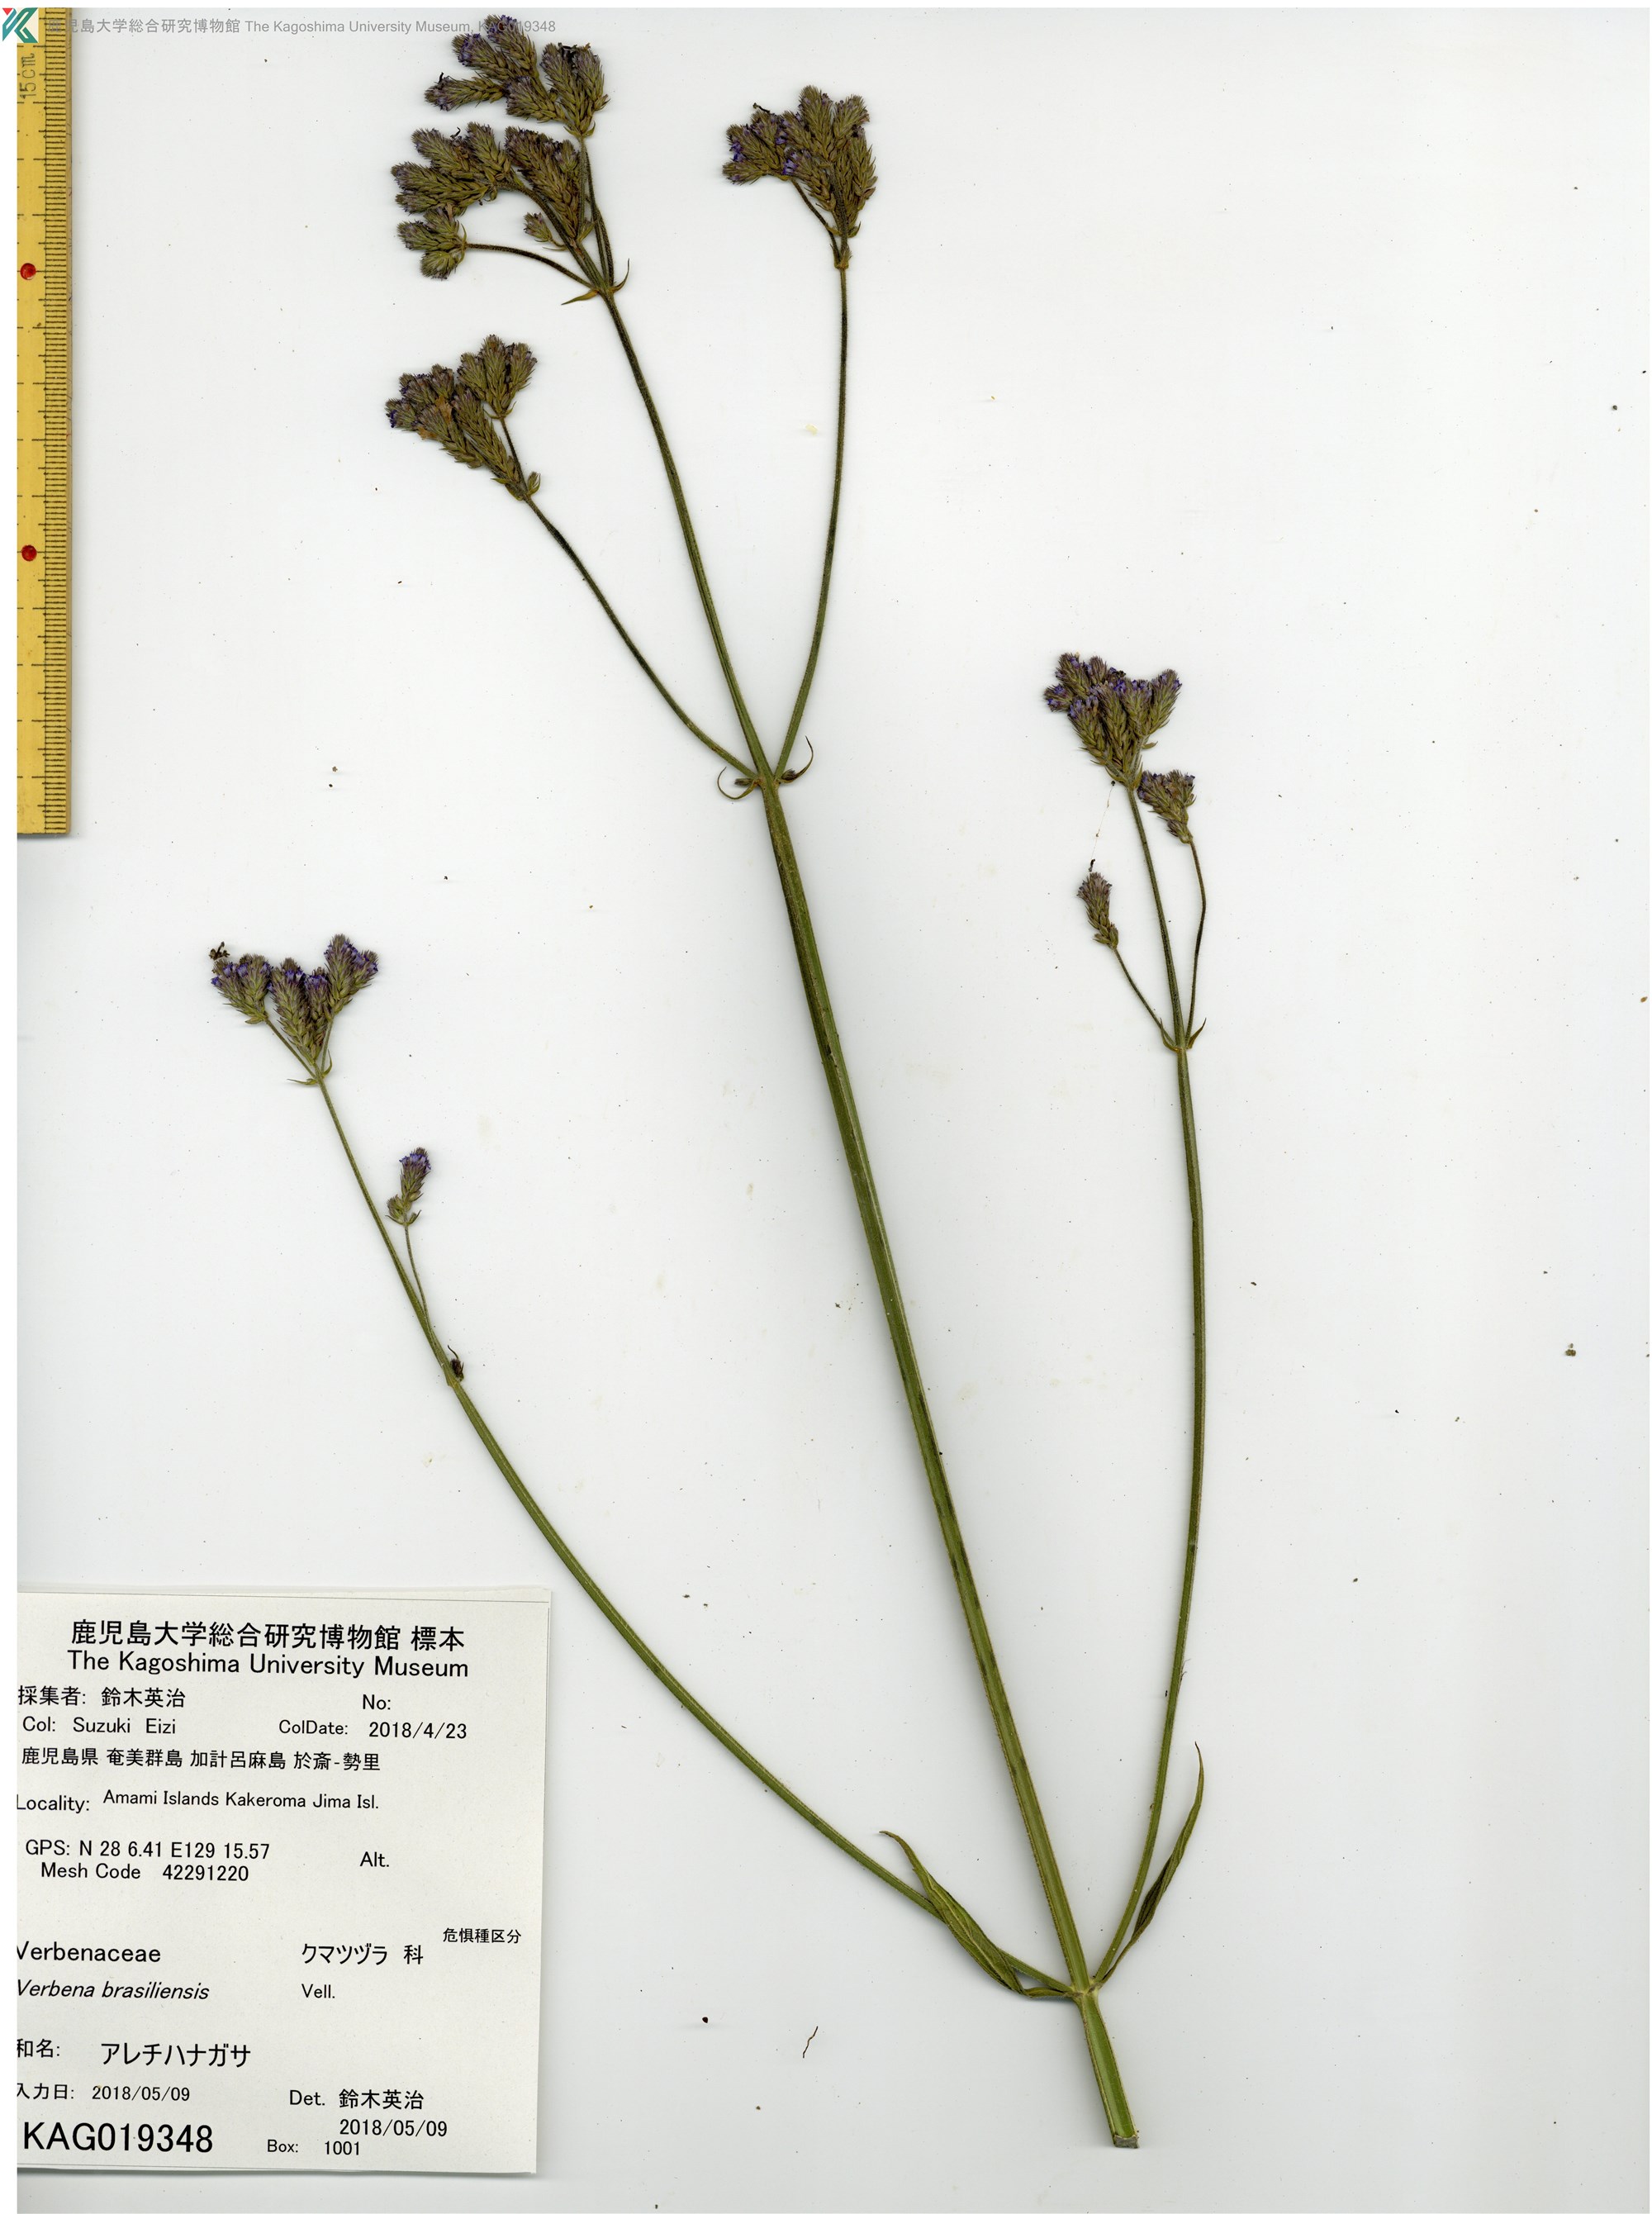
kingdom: Plantae
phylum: Tracheophyta
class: Magnoliopsida
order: Lamiales
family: Verbenaceae
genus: Verbena
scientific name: Verbena incompta
